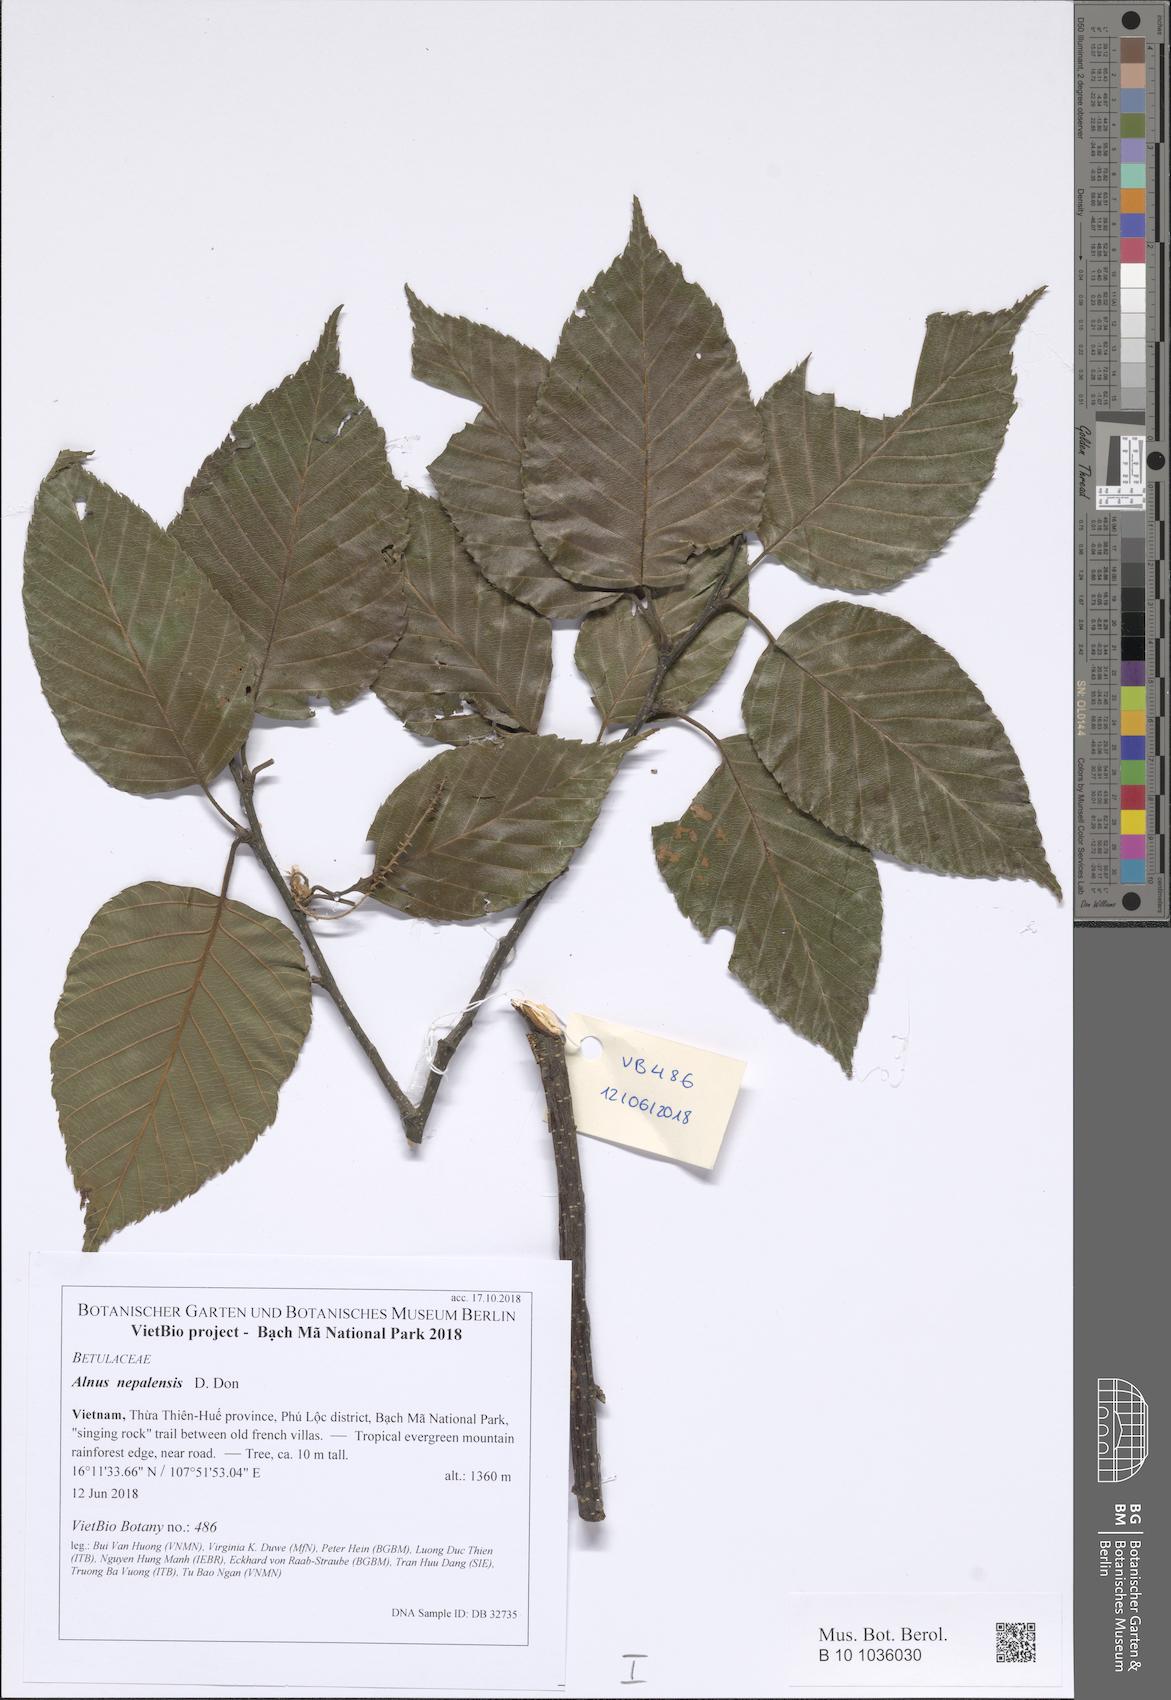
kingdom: Plantae
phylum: Tracheophyta
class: Magnoliopsida
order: Fagales
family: Betulaceae
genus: Alnus
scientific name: Alnus nepalensis
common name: Nepal alder
